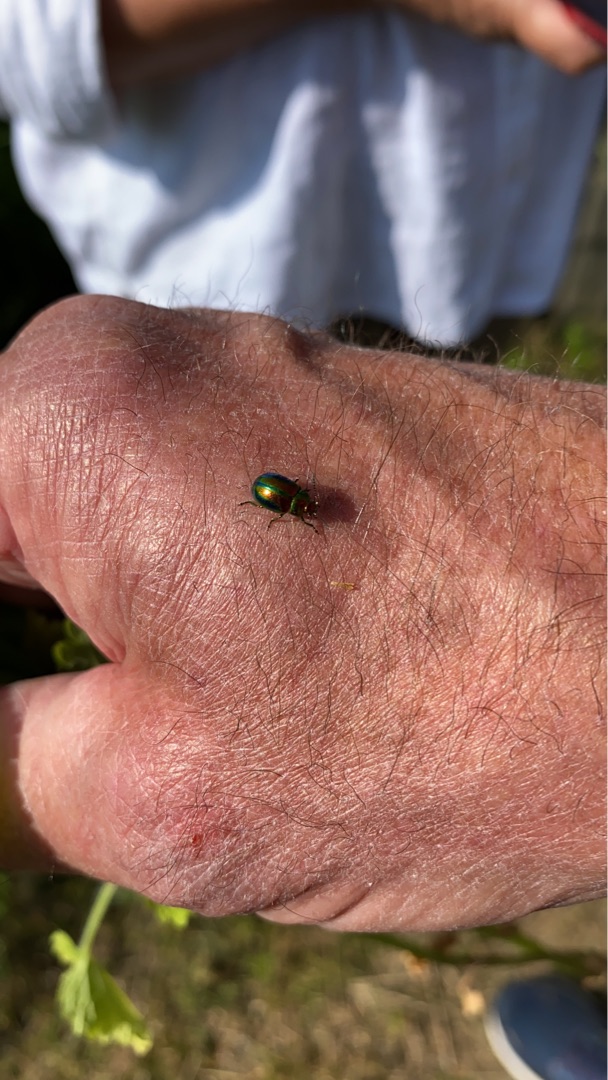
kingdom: Animalia
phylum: Arthropoda
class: Insecta
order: Coleoptera
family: Chrysomelidae
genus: Chrysolina
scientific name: Chrysolina fastuosa
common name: Tvetandbladbille
